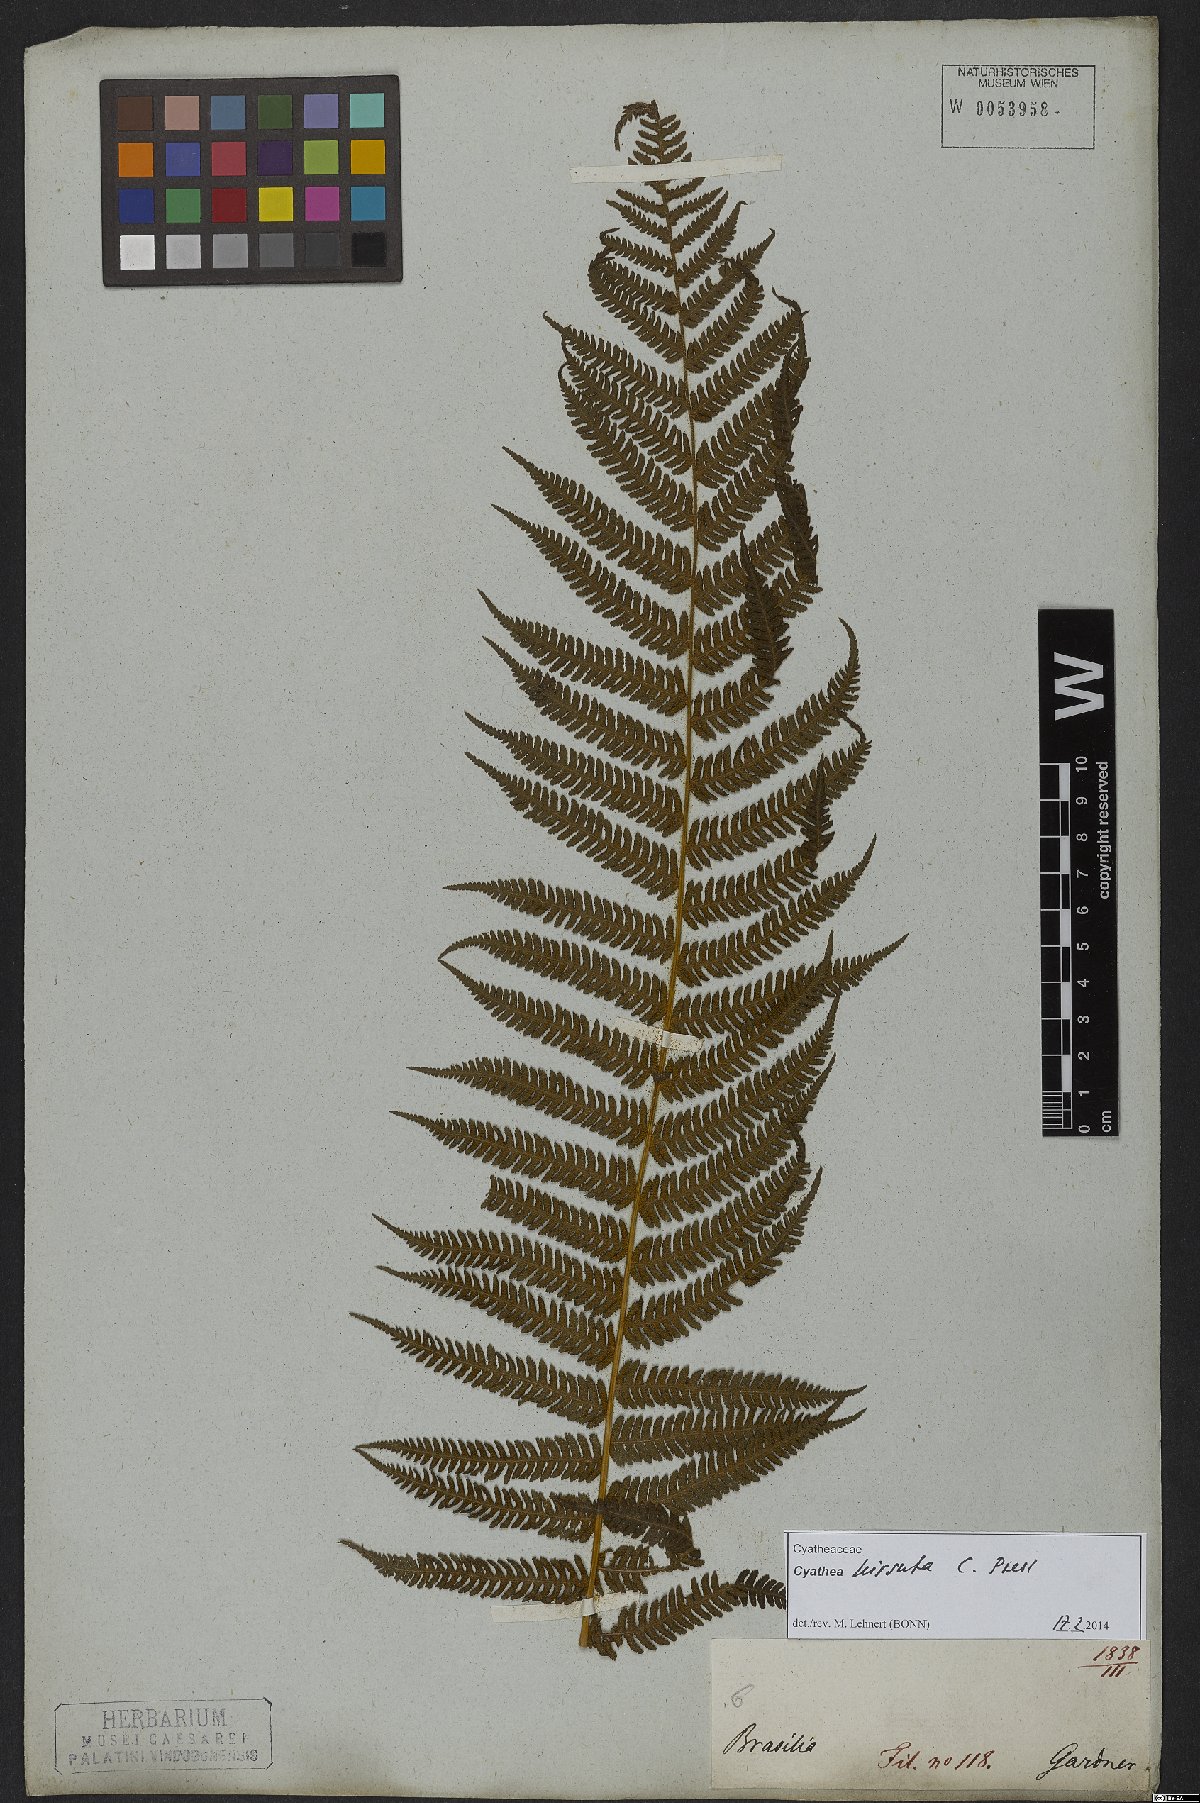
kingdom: Plantae
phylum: Tracheophyta
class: Polypodiopsida
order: Cyatheales
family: Cyatheaceae
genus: Cyathea
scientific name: Cyathea hirsuta
